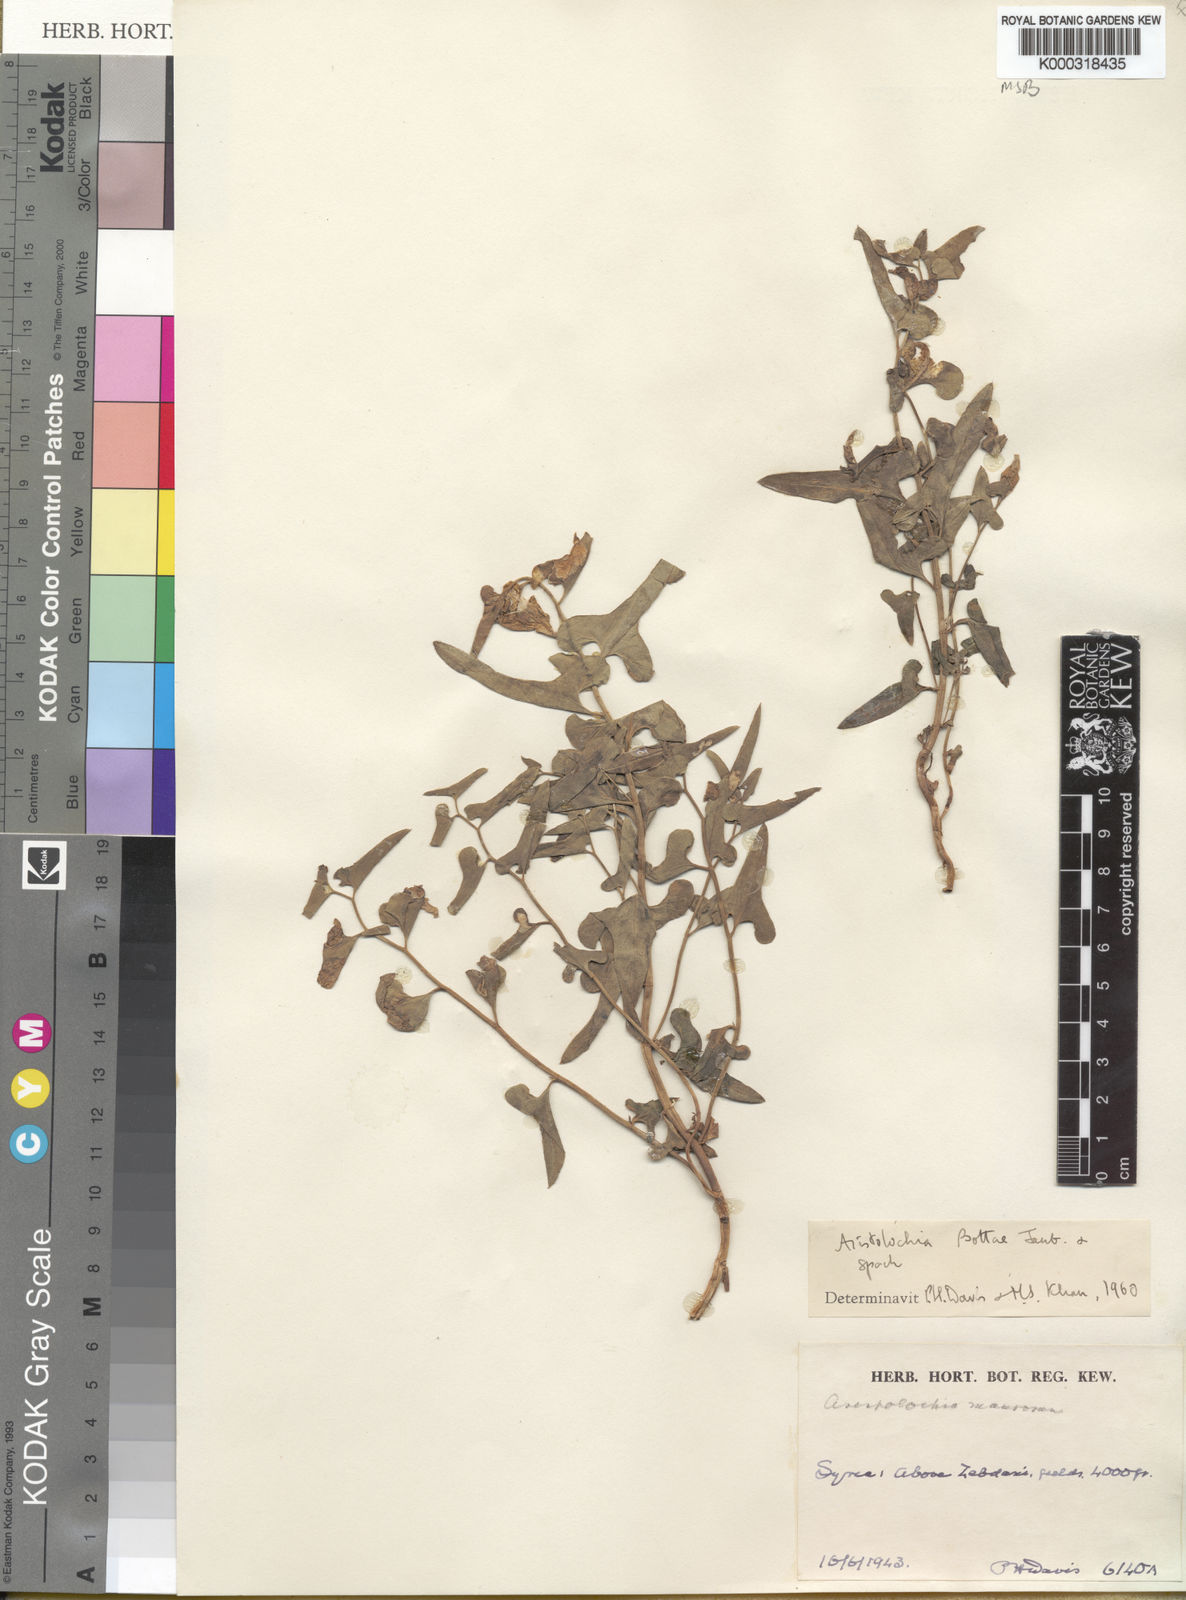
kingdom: Plantae
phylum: Tracheophyta
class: Magnoliopsida
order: Piperales
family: Aristolochiaceae
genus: Aristolochia
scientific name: Aristolochia bottae
